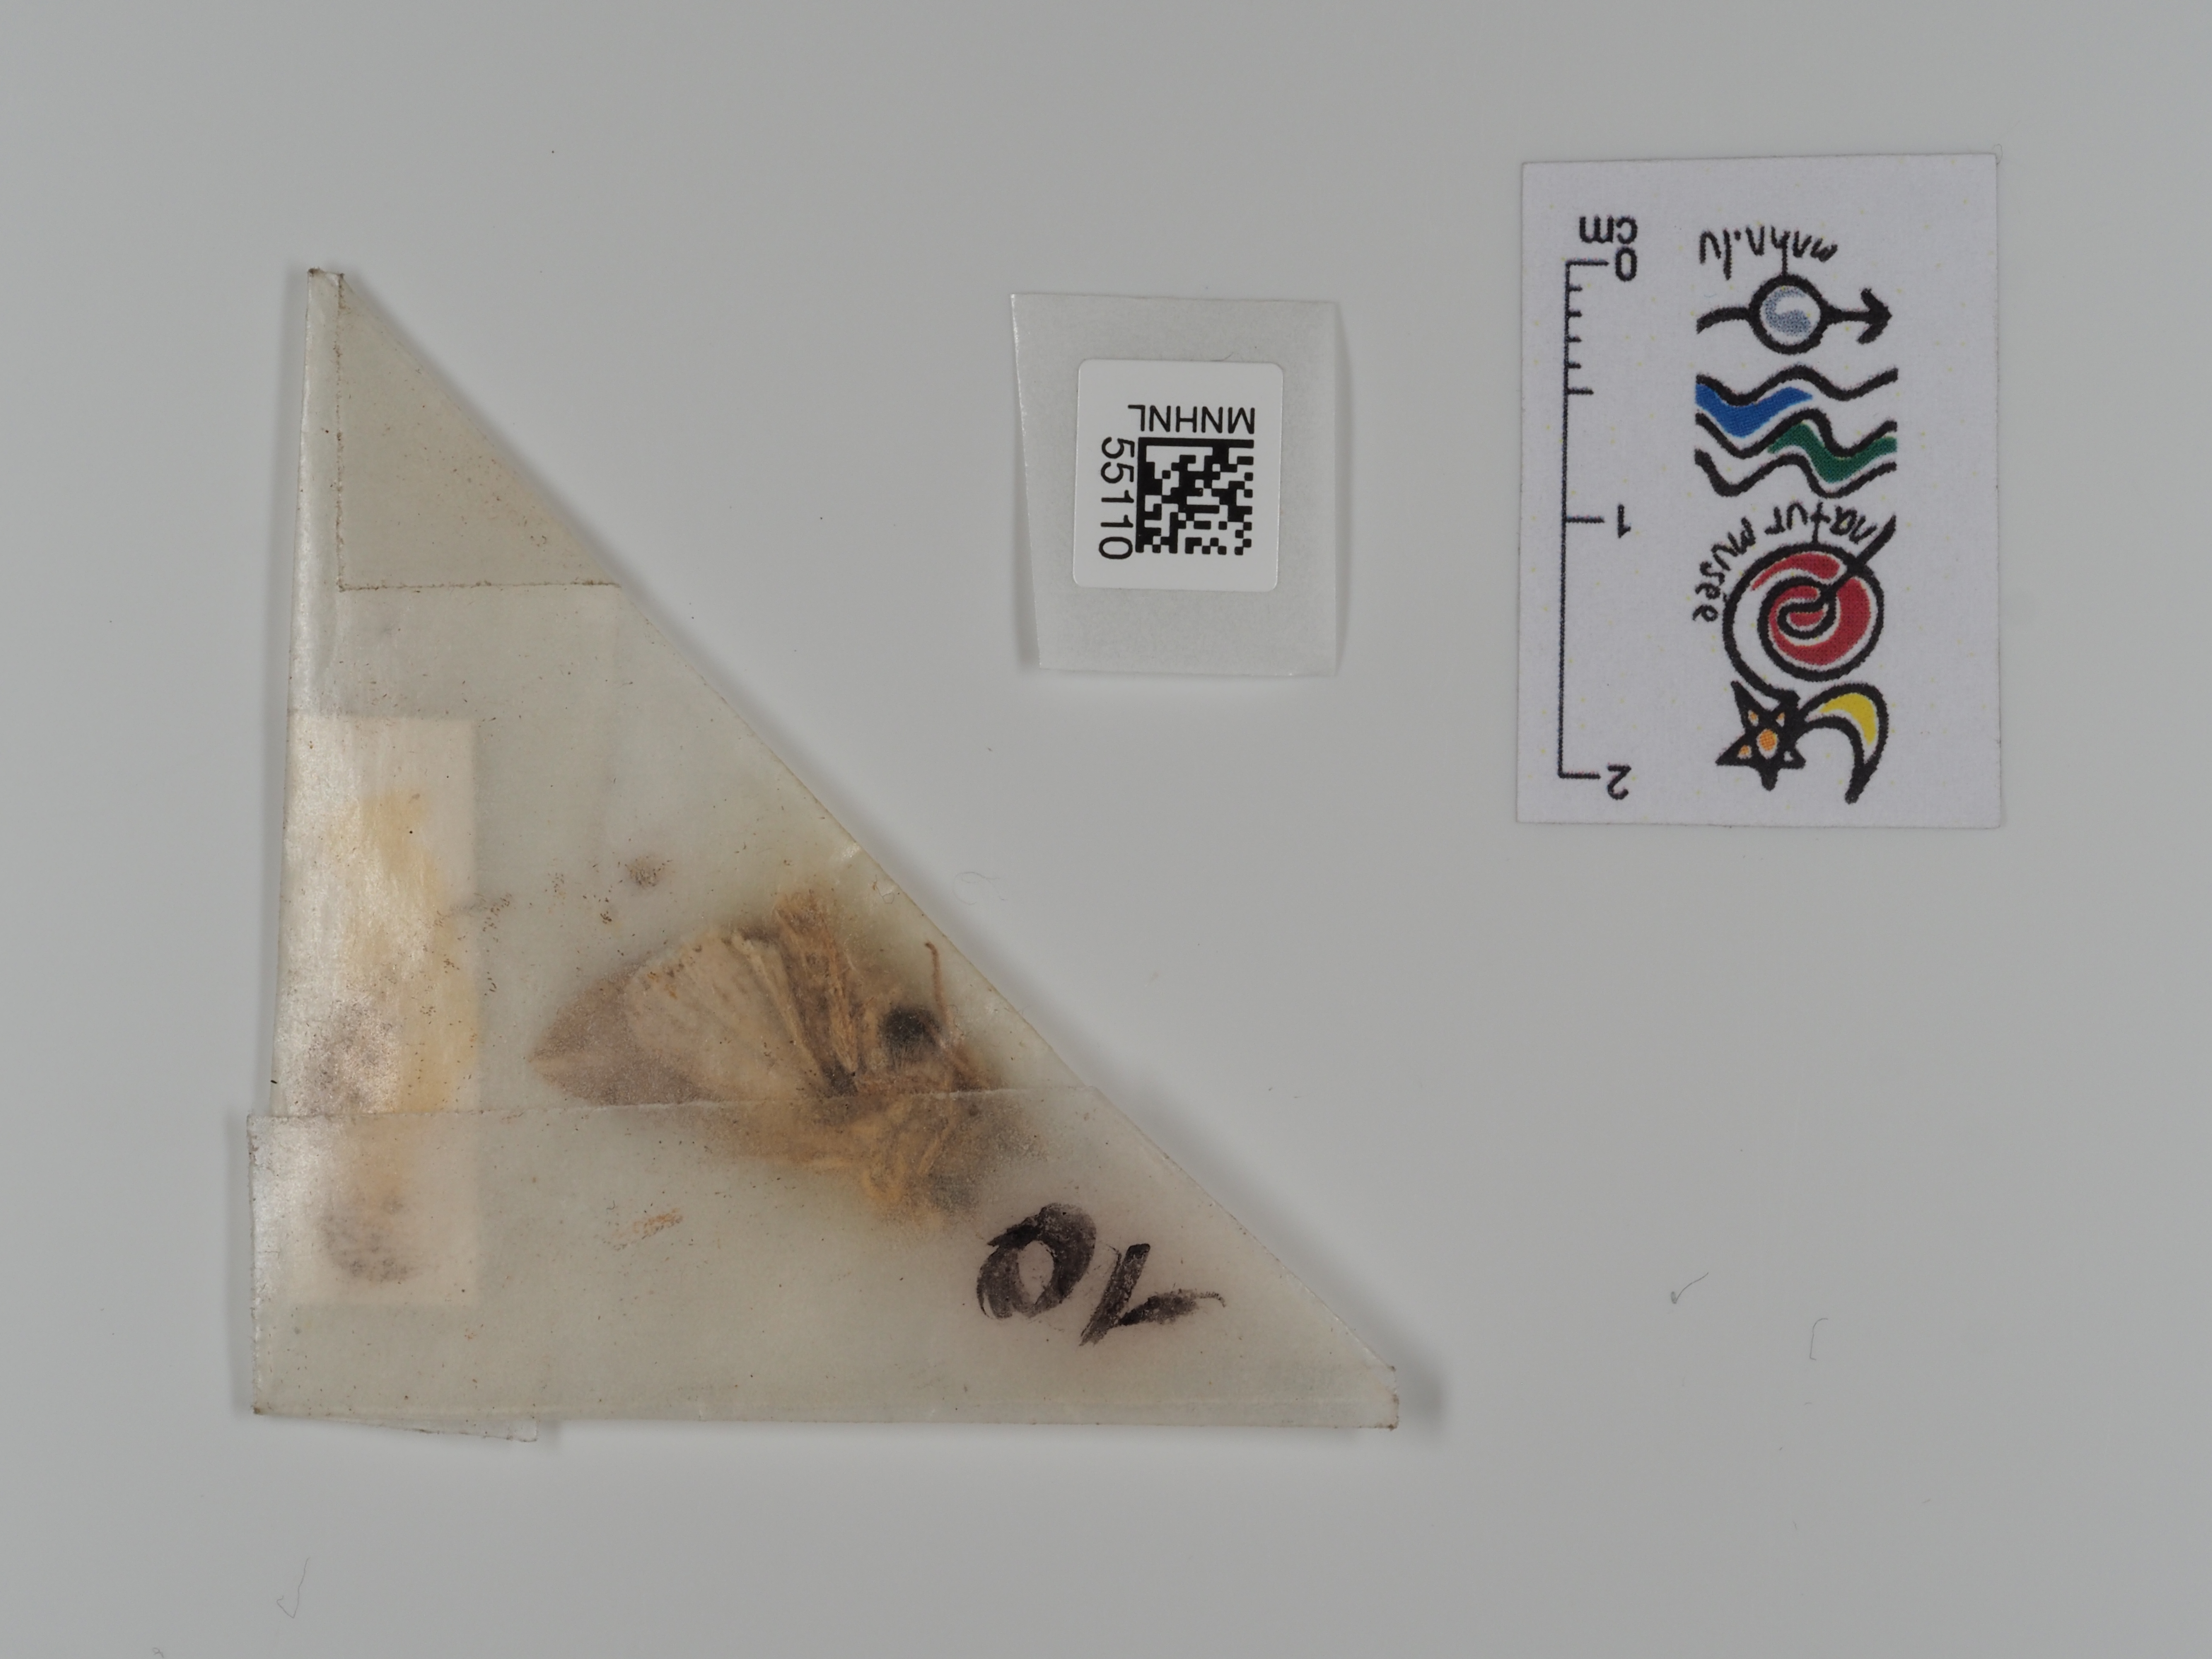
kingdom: Animalia
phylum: Arthropoda
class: Insecta
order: Lepidoptera
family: Noctuidae
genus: Mythimna
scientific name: Mythimna l-album
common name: L-album wainscot
